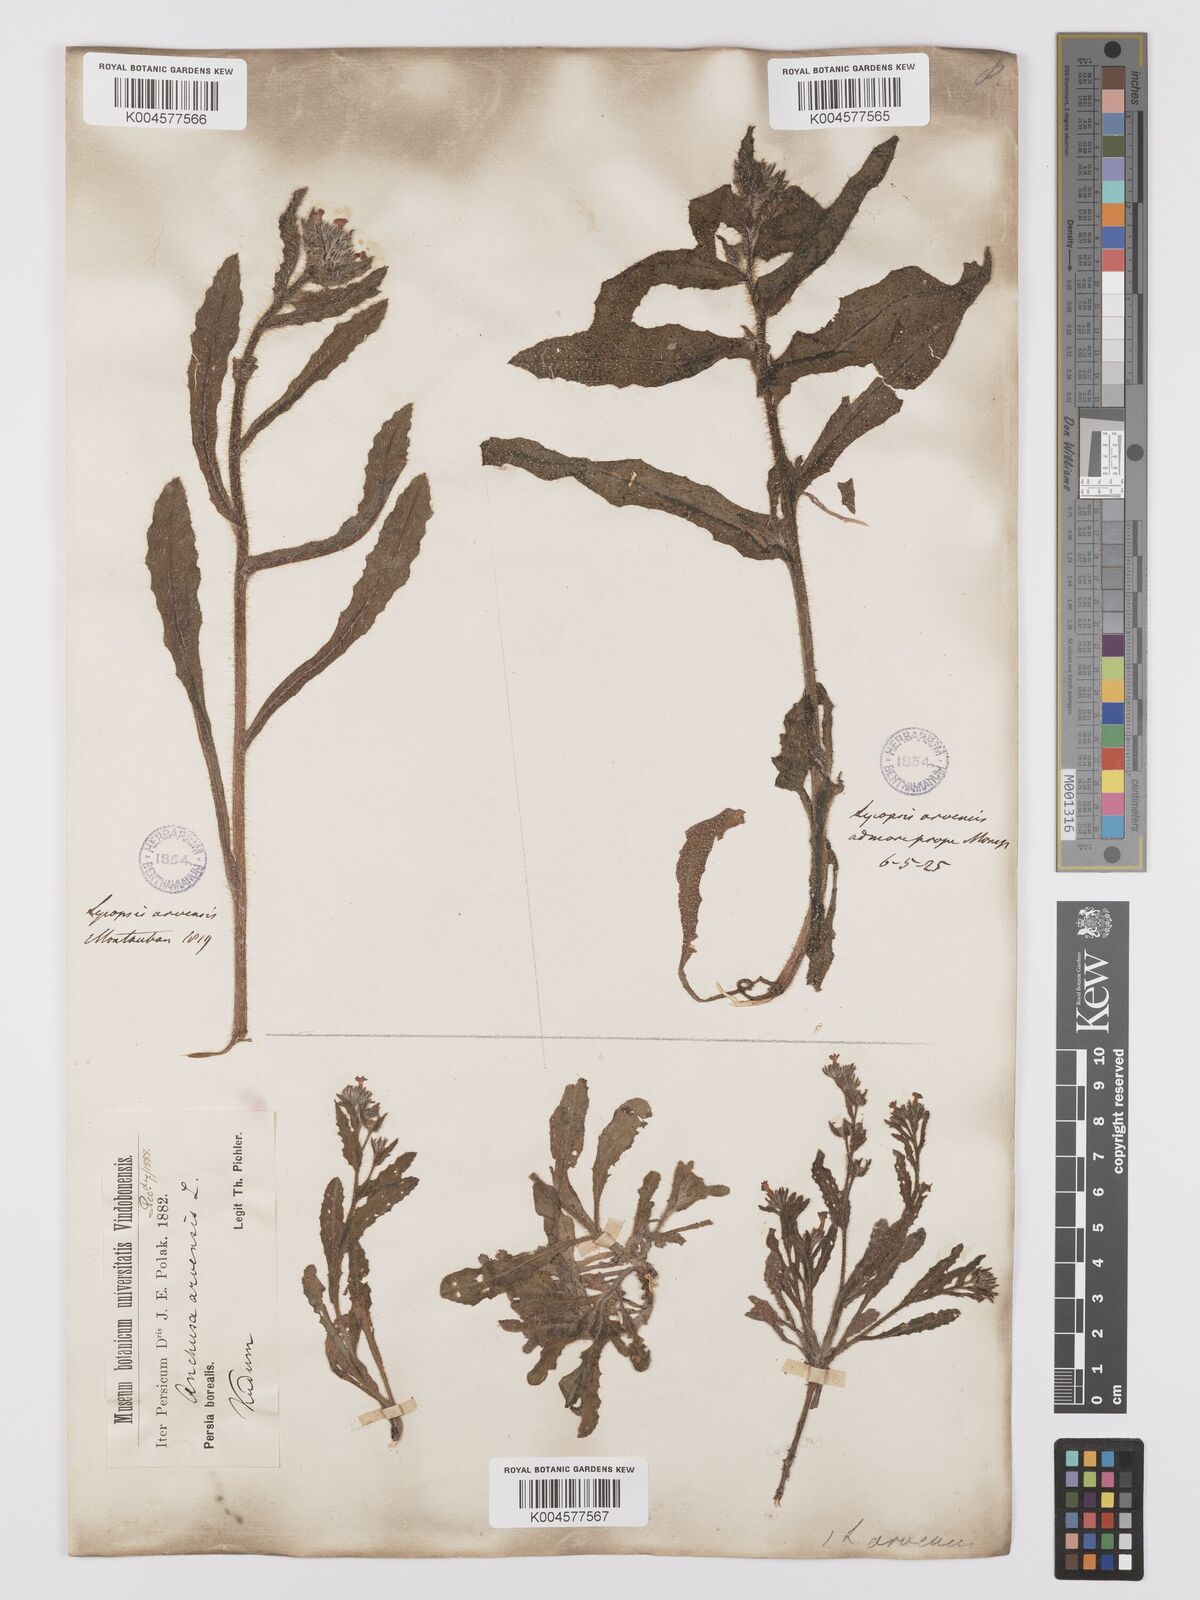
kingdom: Plantae
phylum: Tracheophyta
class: Magnoliopsida
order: Boraginales
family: Boraginaceae
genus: Lycopsis
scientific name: Lycopsis arvensis
